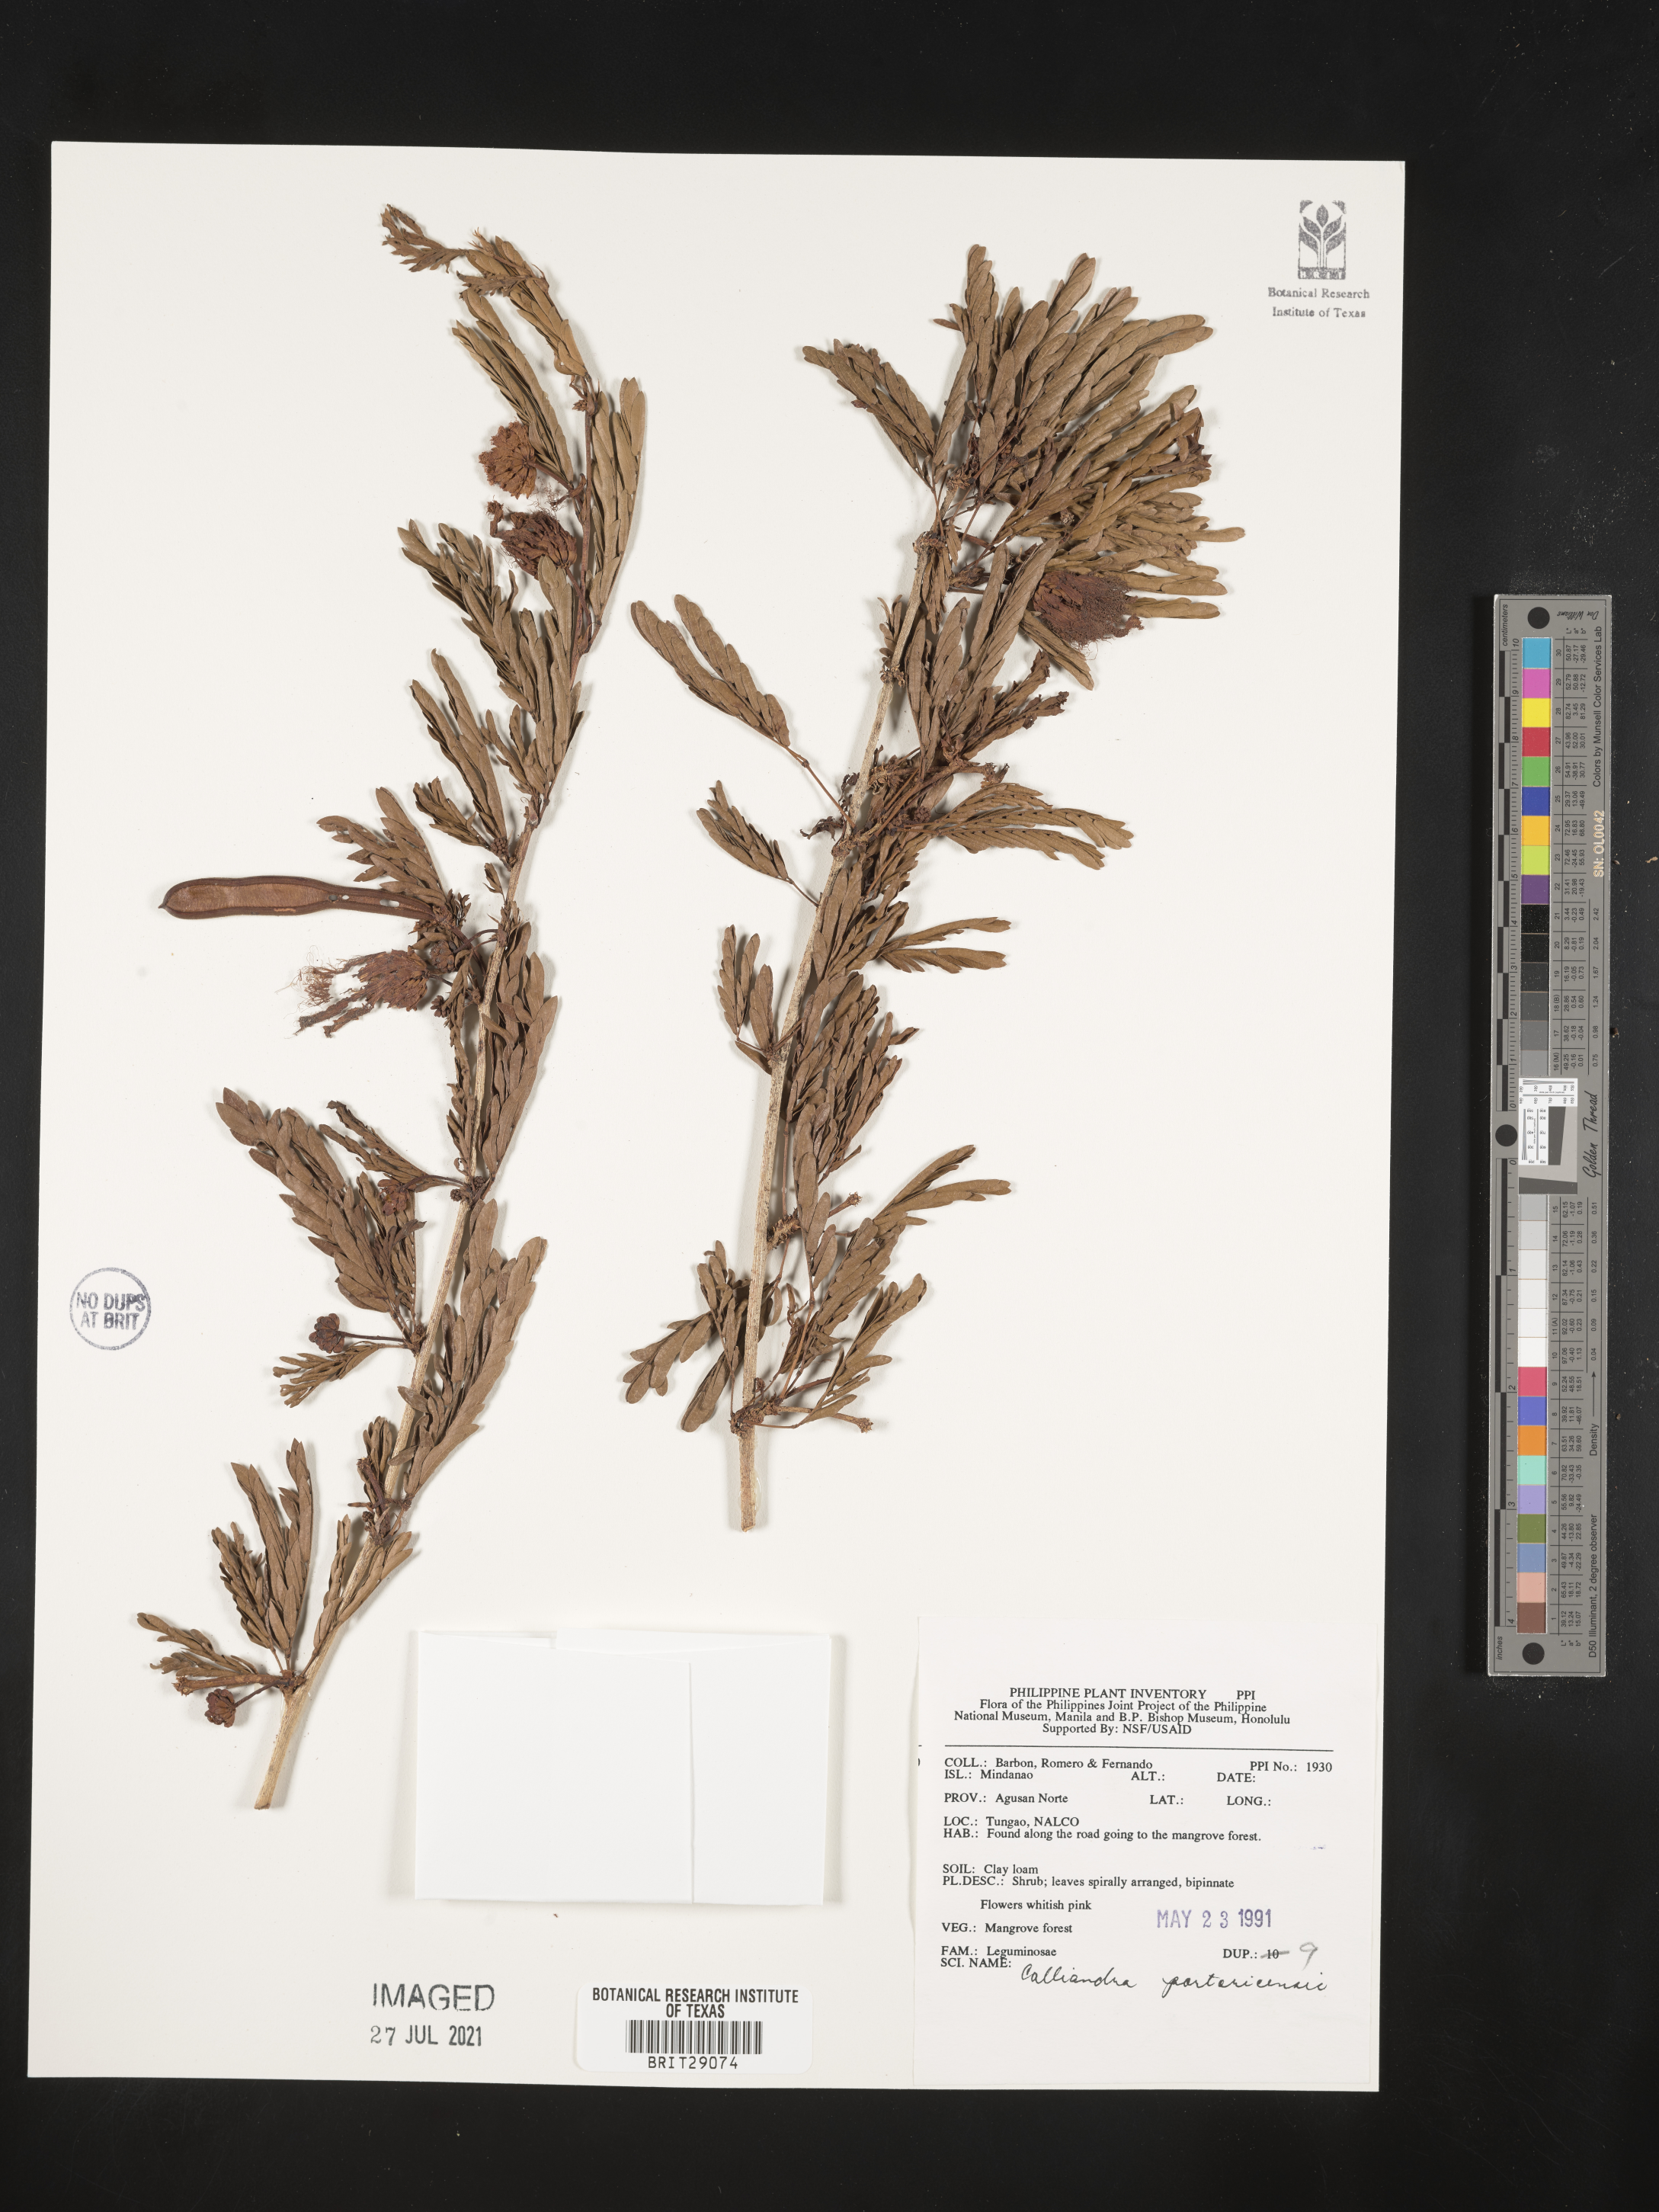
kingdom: Plantae
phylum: Tracheophyta
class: Magnoliopsida
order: Fabales
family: Fabaceae
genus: Zapoteca
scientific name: Zapoteca portoricensis
